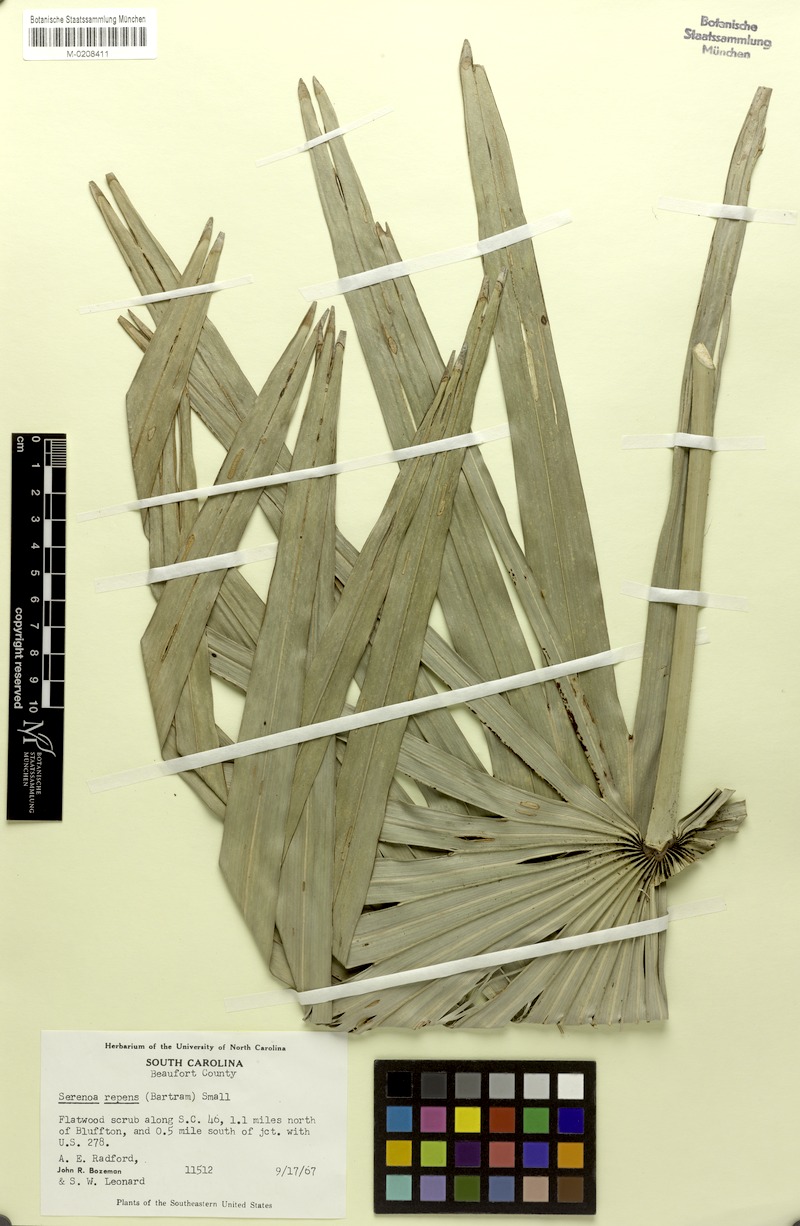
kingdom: Plantae
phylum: Tracheophyta
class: Liliopsida
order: Arecales
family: Arecaceae
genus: Serenoa
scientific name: Serenoa repens
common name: Saw-palmetto
